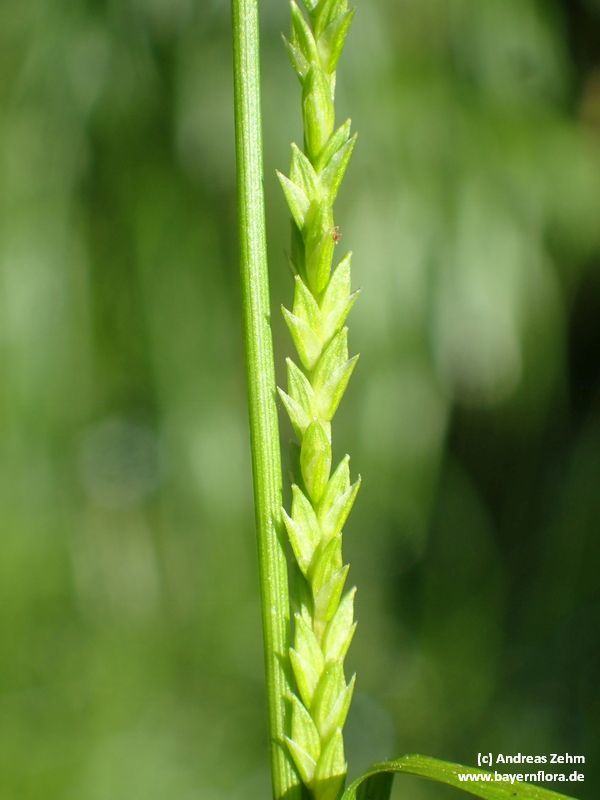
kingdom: Plantae
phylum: Tracheophyta
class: Liliopsida
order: Poales
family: Cyperaceae
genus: Carex
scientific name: Carex strigosa
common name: Thin-spiked wood-sedge
